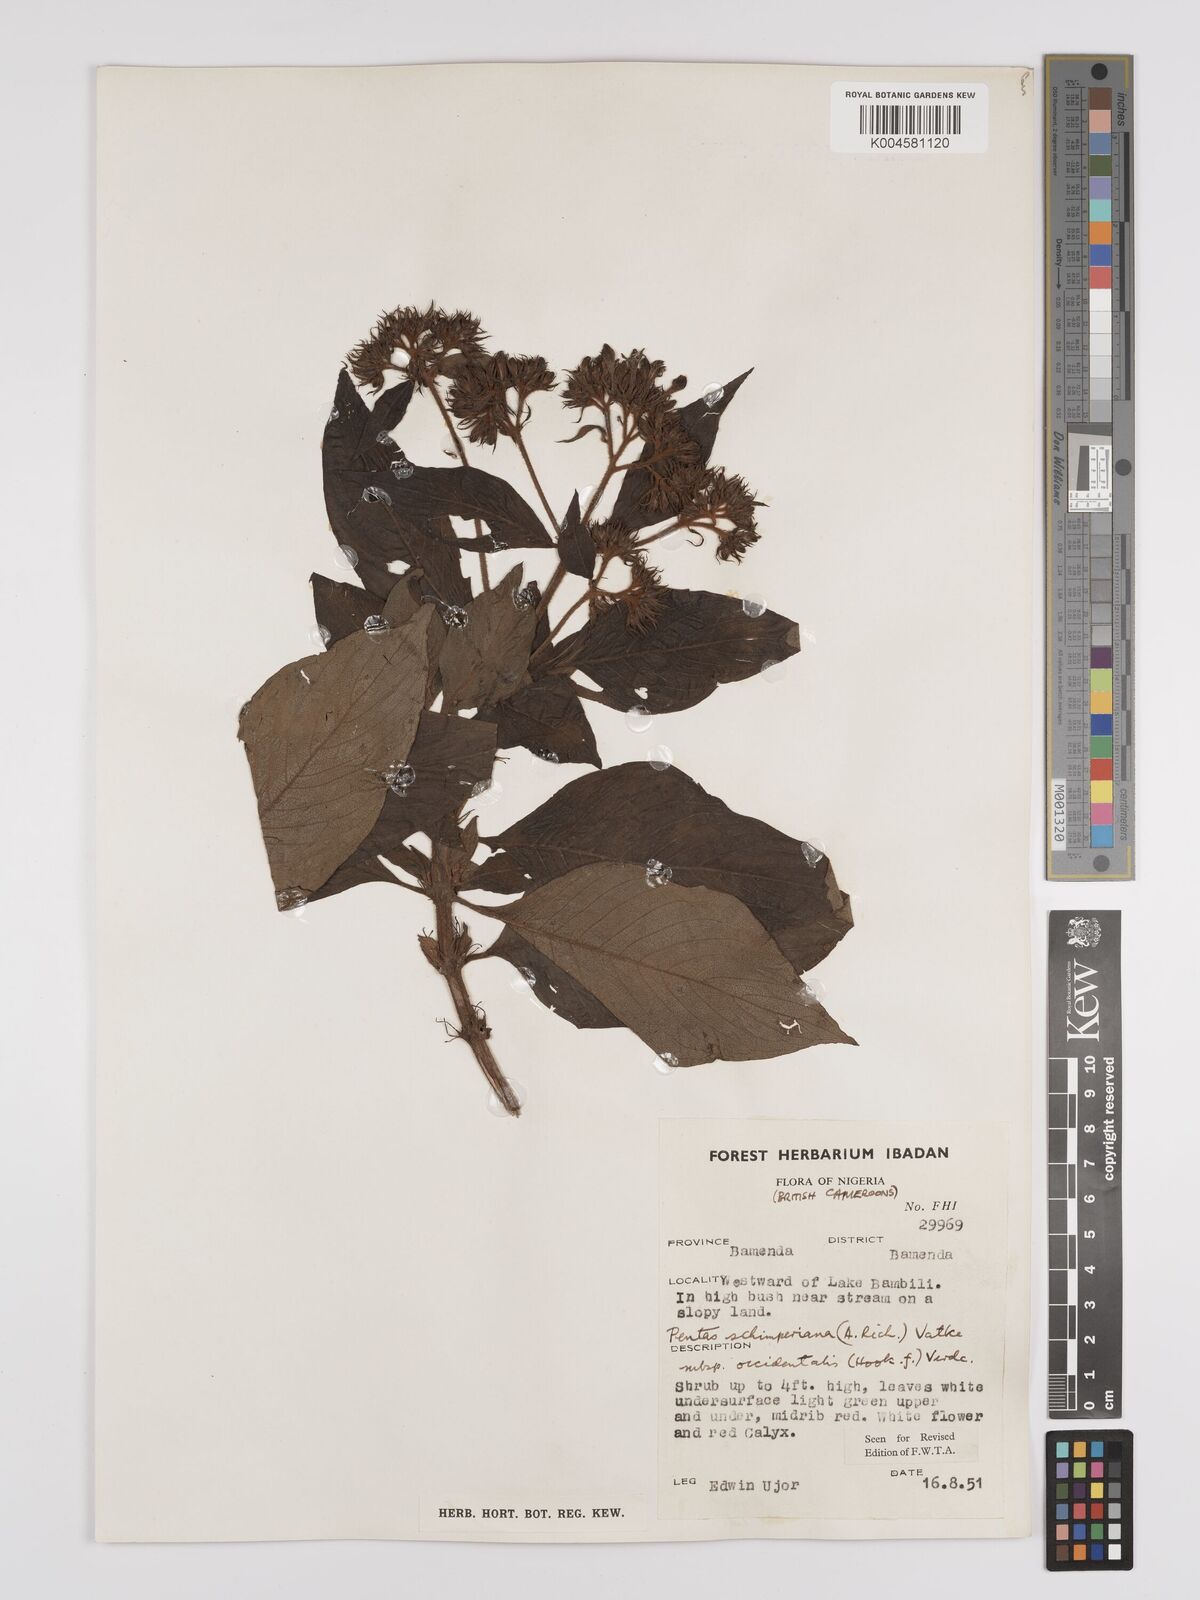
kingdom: Plantae
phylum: Tracheophyta
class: Magnoliopsida
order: Gentianales
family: Rubiaceae
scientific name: Rubiaceae
